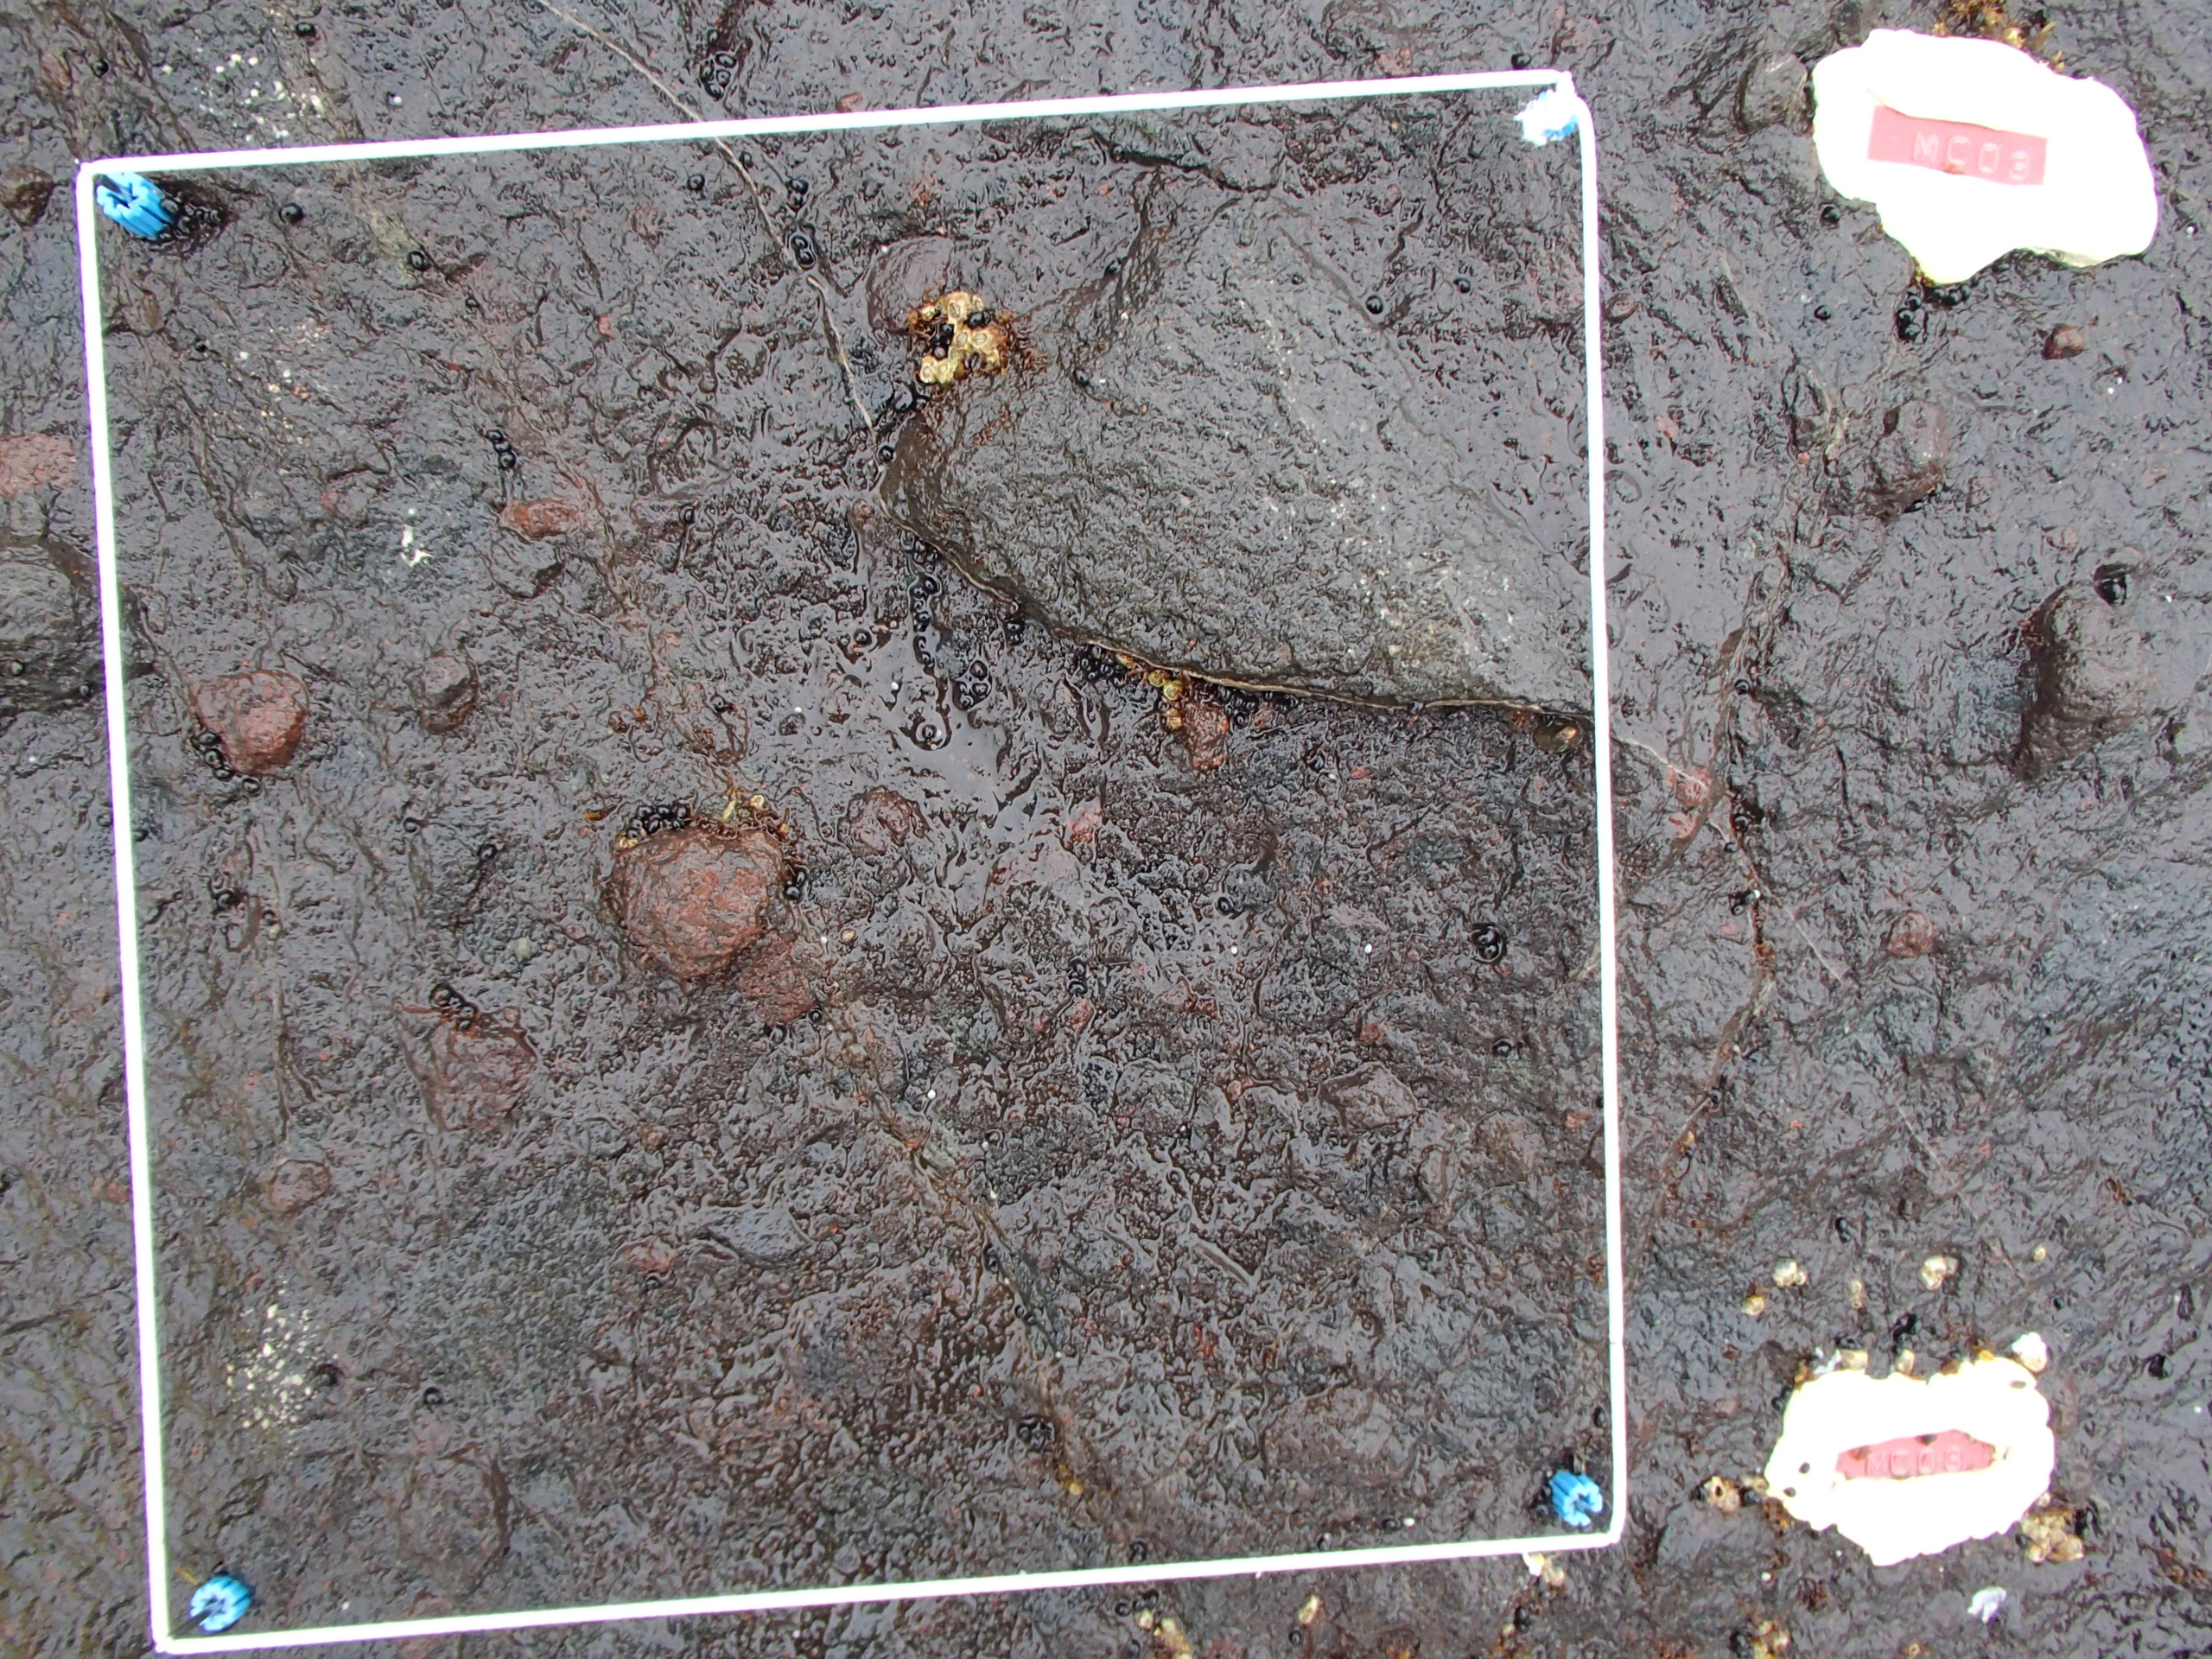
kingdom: Plantae
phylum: Rhodophyta
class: Florideophyceae
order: Gigartinales
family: Endocladiaceae
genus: Gloiopeltis
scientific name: Gloiopeltis furcata
